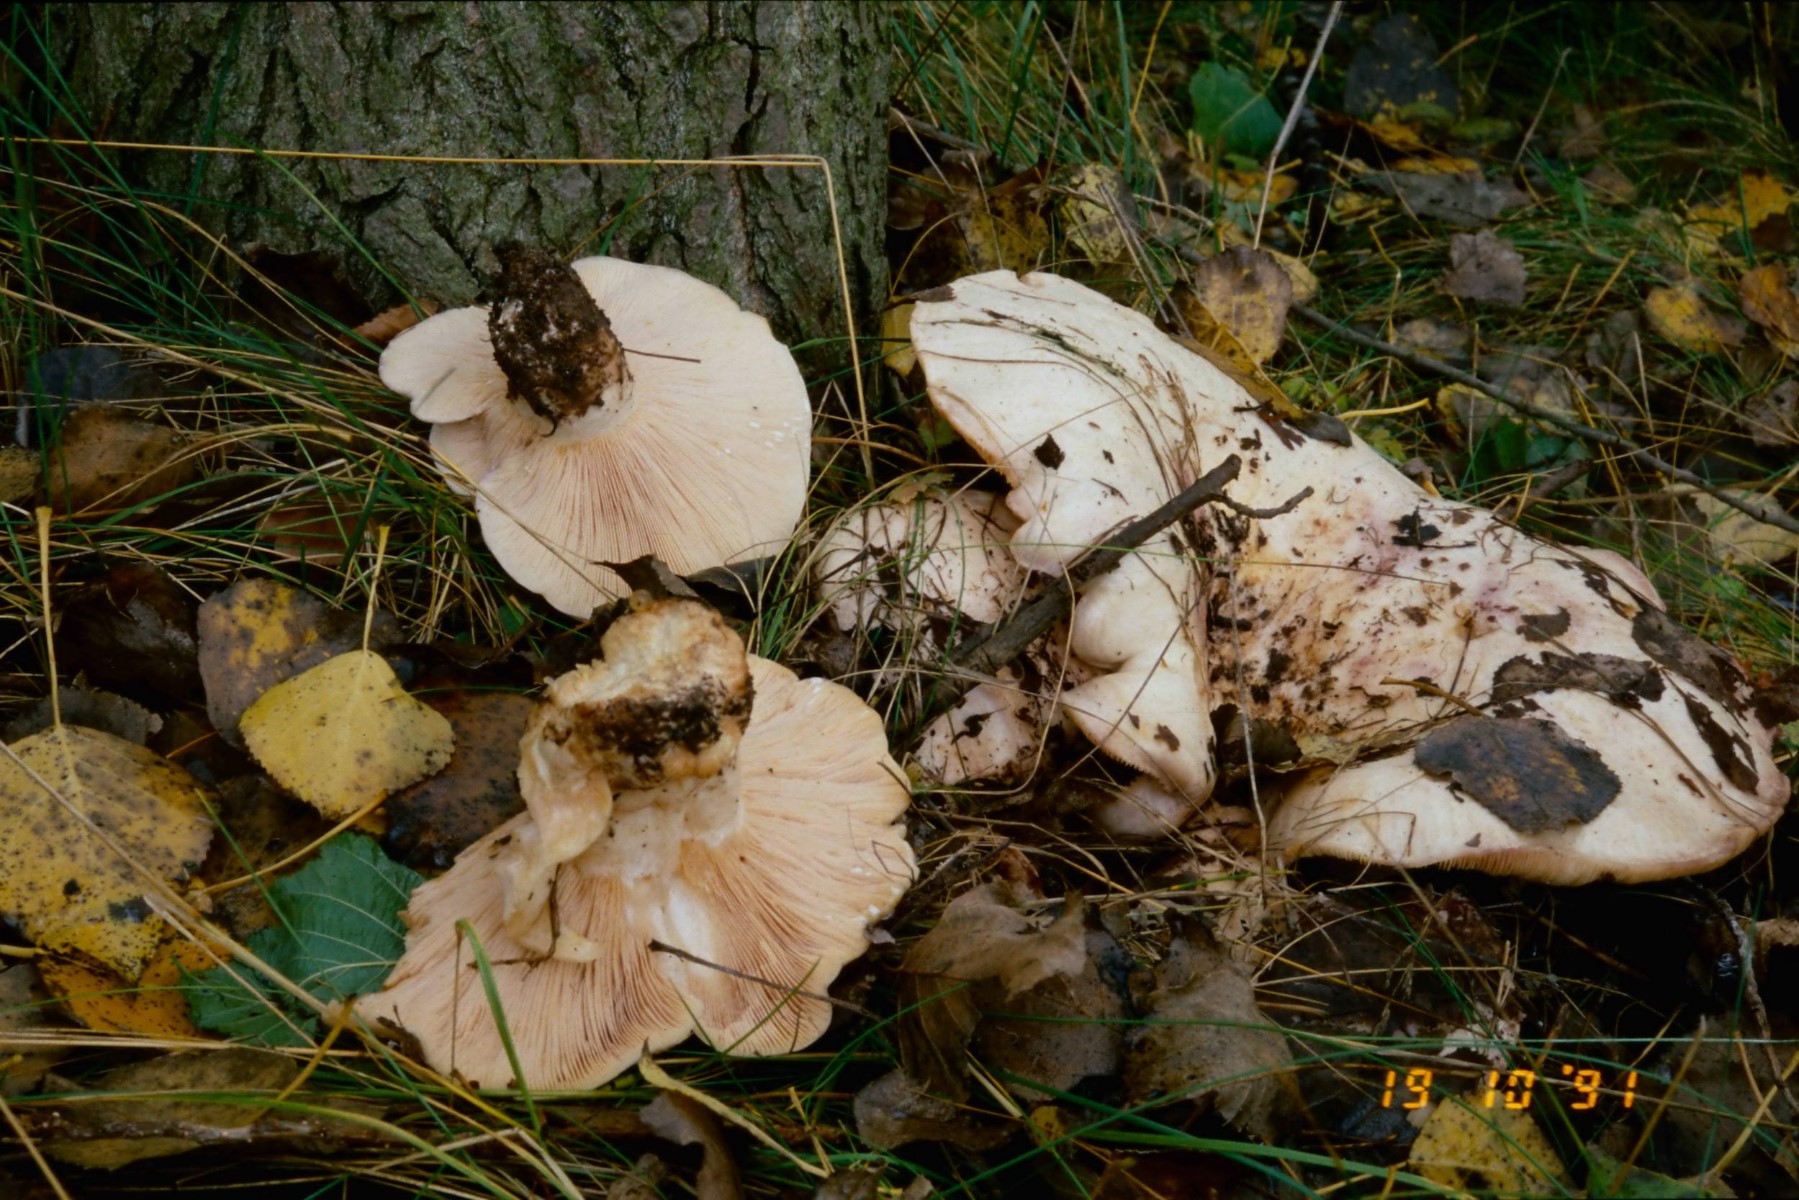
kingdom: Fungi
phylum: Basidiomycota
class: Agaricomycetes
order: Russulales
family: Russulaceae
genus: Lactarius
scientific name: Lactarius controversus
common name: rosabladet mælkehat
